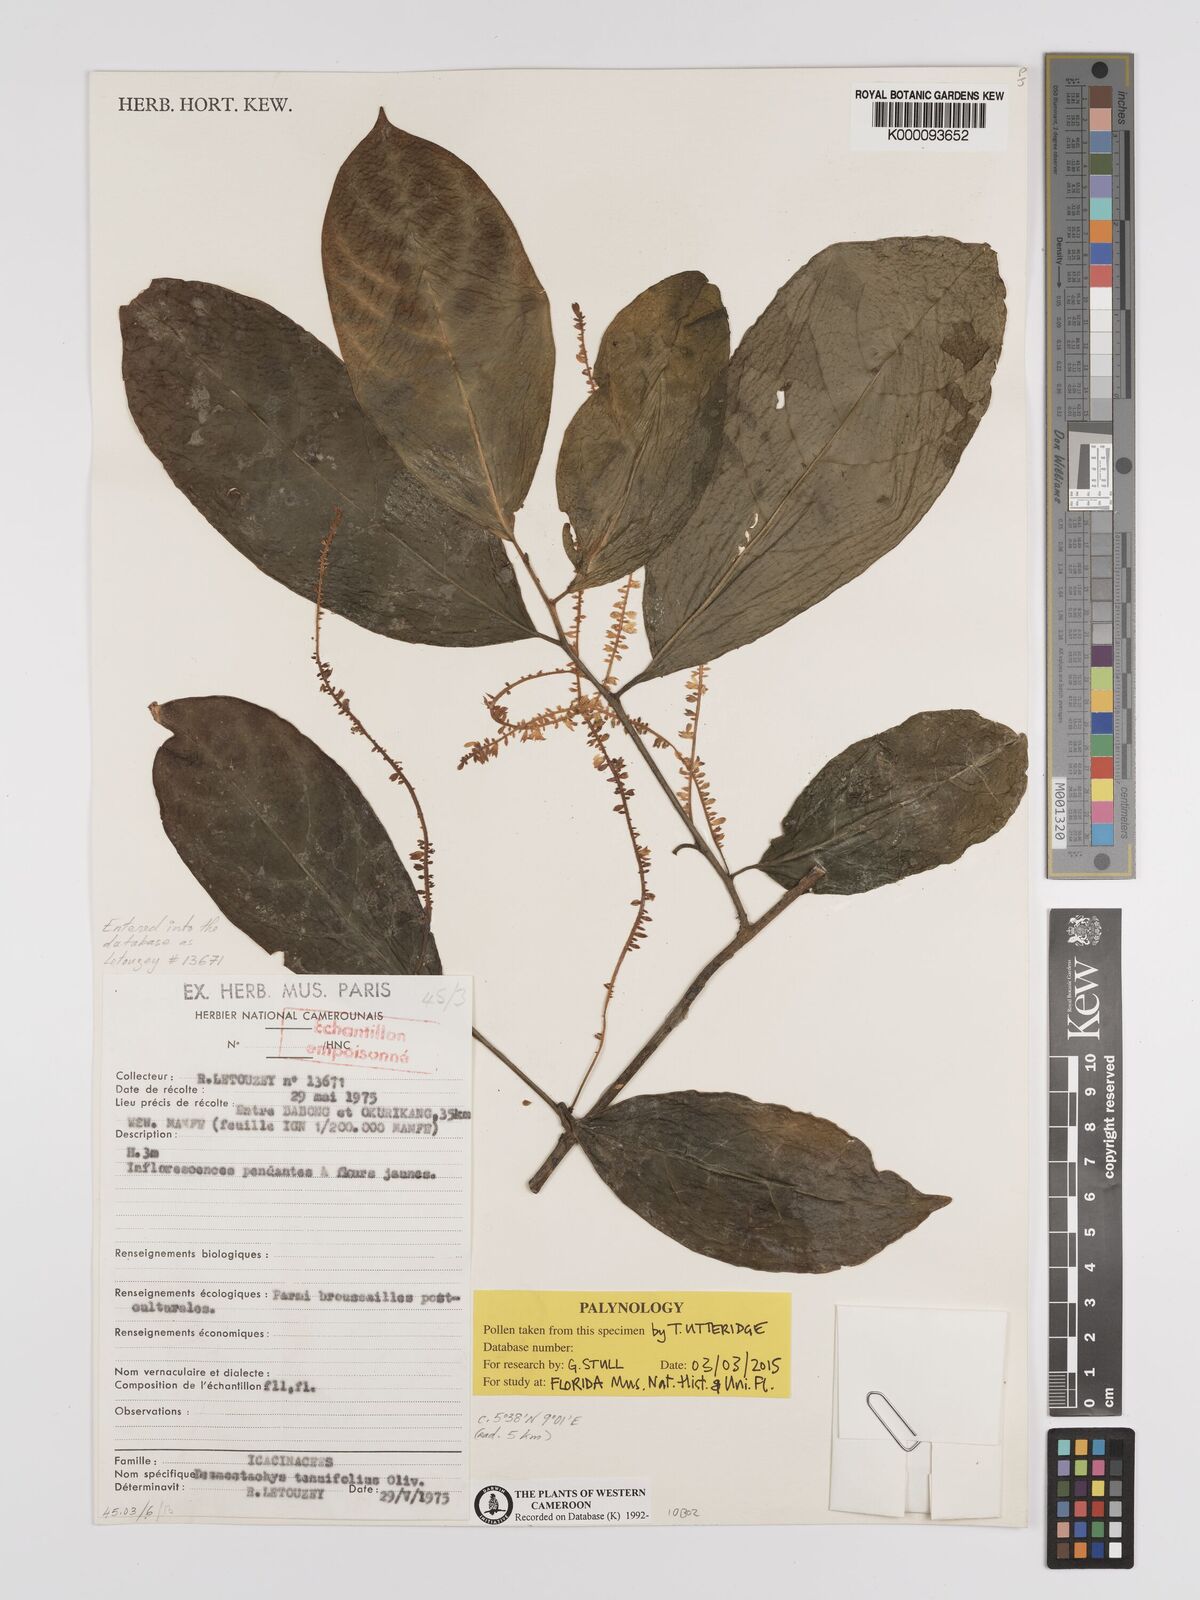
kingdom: Plantae
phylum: Tracheophyta
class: Magnoliopsida
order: Icacinales
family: Icacinaceae
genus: Vadensea
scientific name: Vadensea tenuifolia
